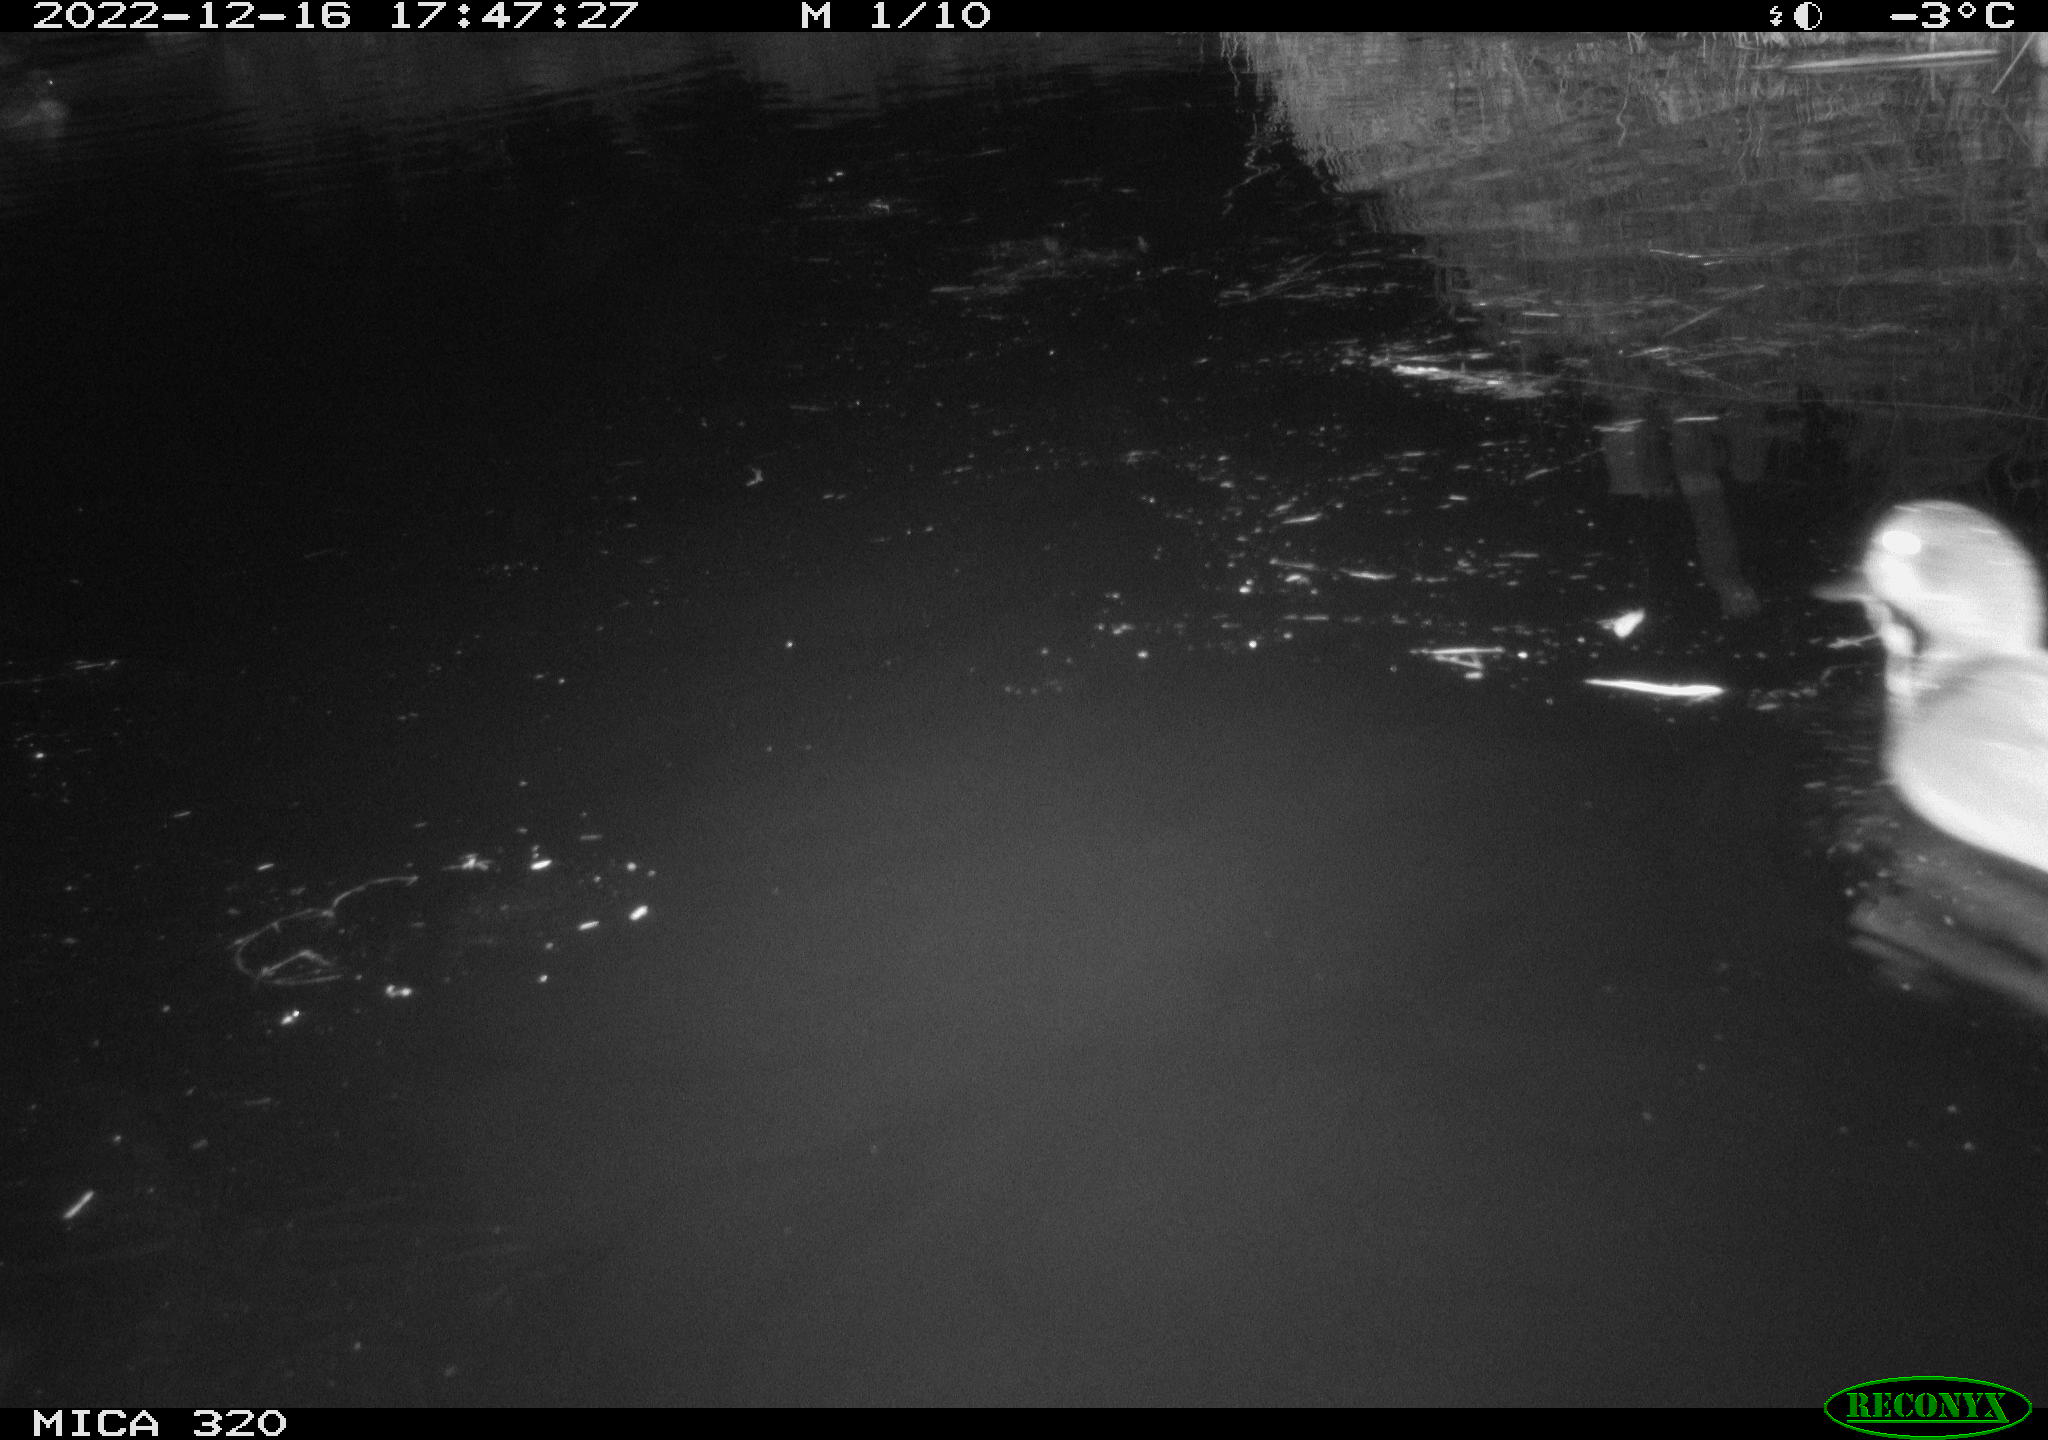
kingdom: Animalia
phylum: Chordata
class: Aves
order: Anseriformes
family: Anatidae
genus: Anas
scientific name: Anas
